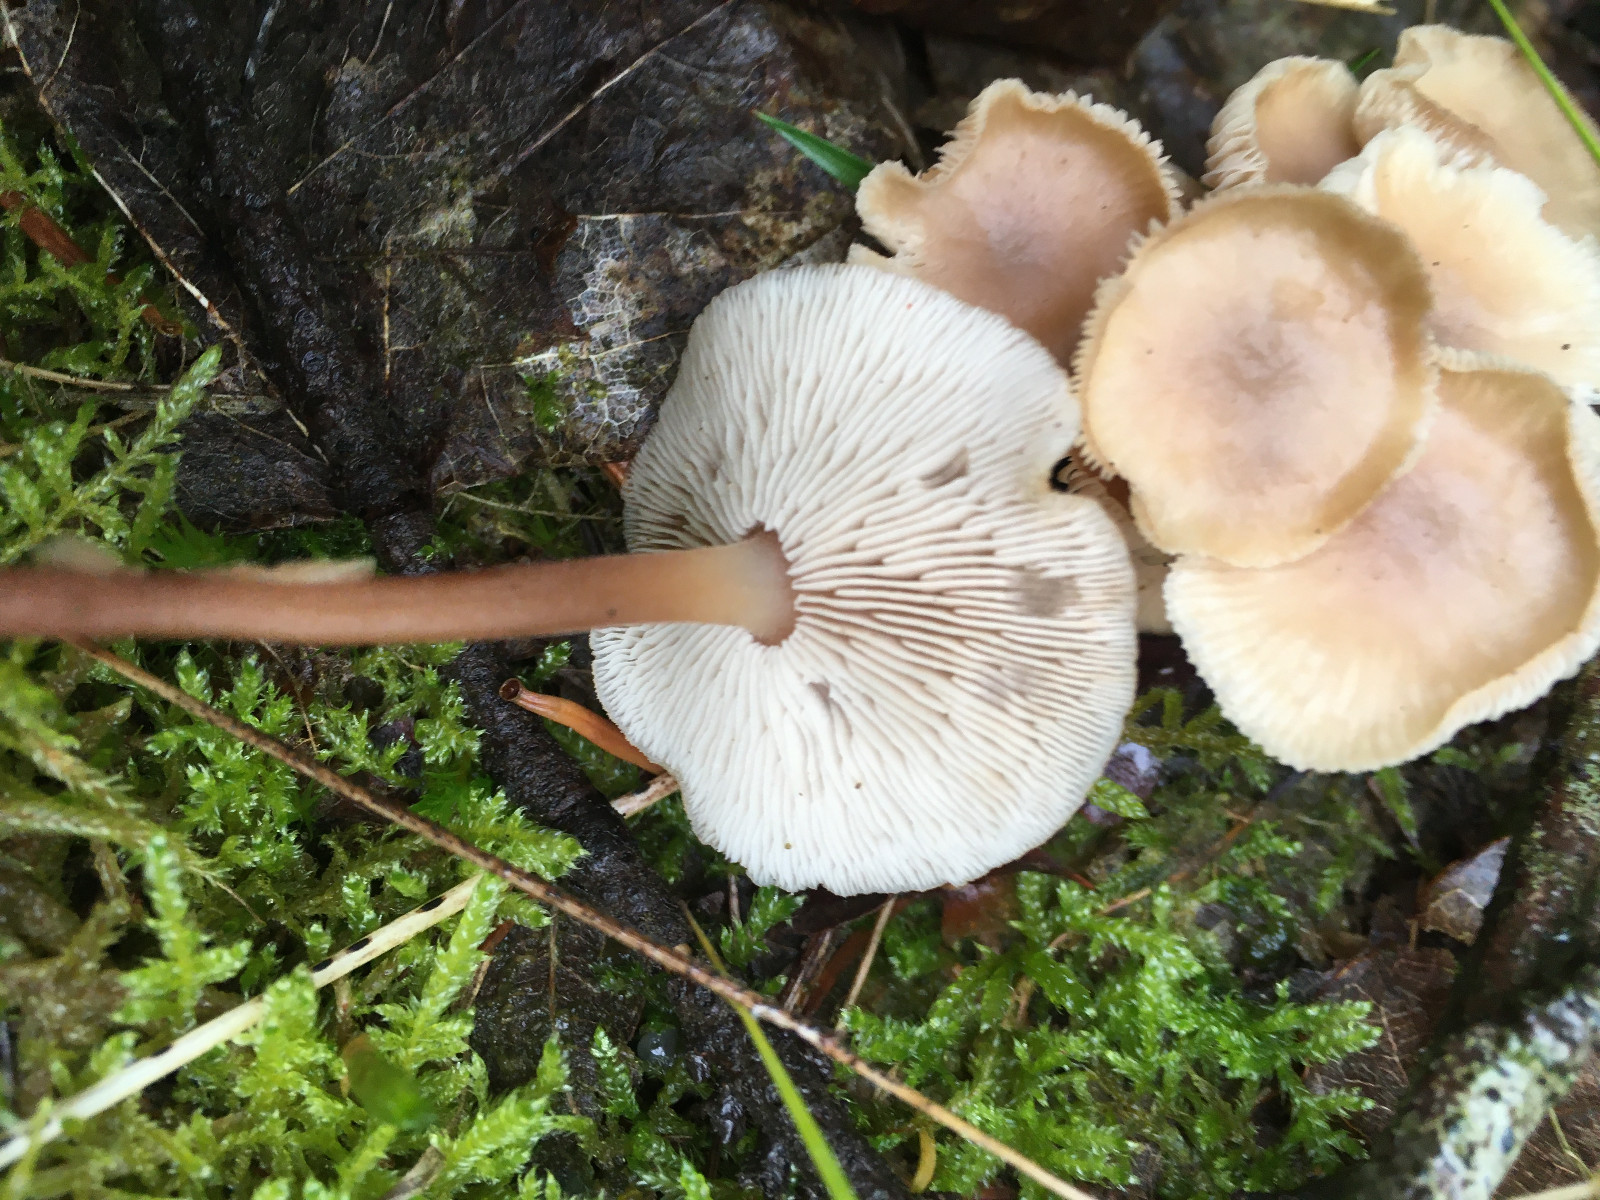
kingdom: Fungi
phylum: Basidiomycota
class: Agaricomycetes
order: Agaricales
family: Omphalotaceae
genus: Collybiopsis
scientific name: Collybiopsis confluens
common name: knippe-fladhat
